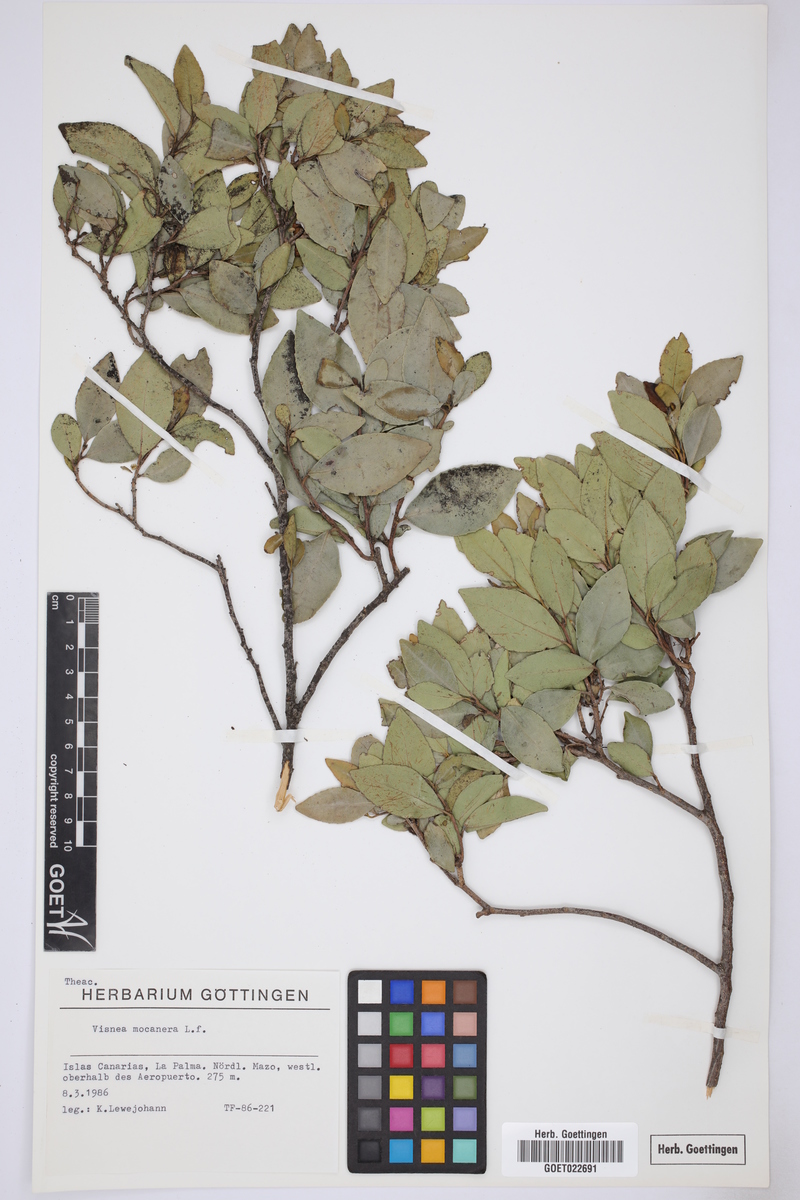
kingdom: Plantae
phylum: Tracheophyta
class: Magnoliopsida
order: Ericales
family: Pentaphylacaceae
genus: Visnea
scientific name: Visnea mocanera
